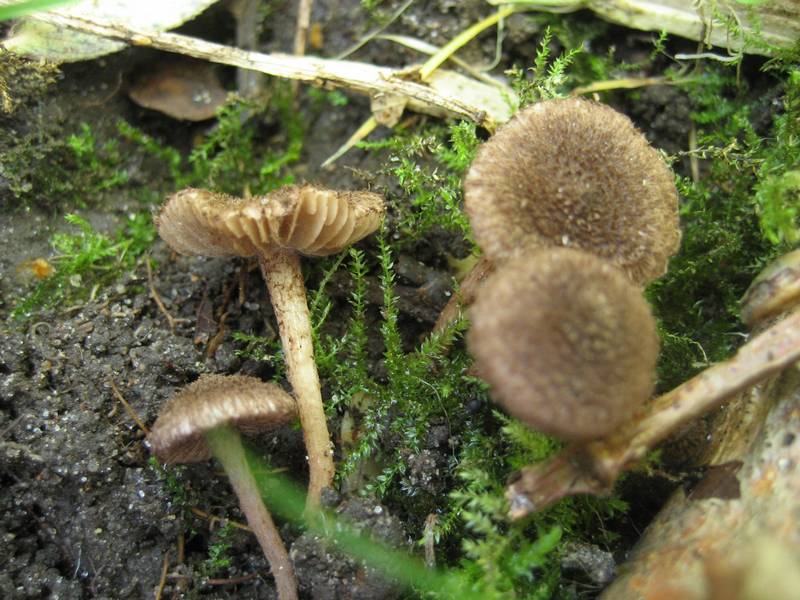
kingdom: Fungi
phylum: Basidiomycota
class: Agaricomycetes
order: Agaricales
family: Inocybaceae
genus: Inocybe
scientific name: Inocybe cincinnata
